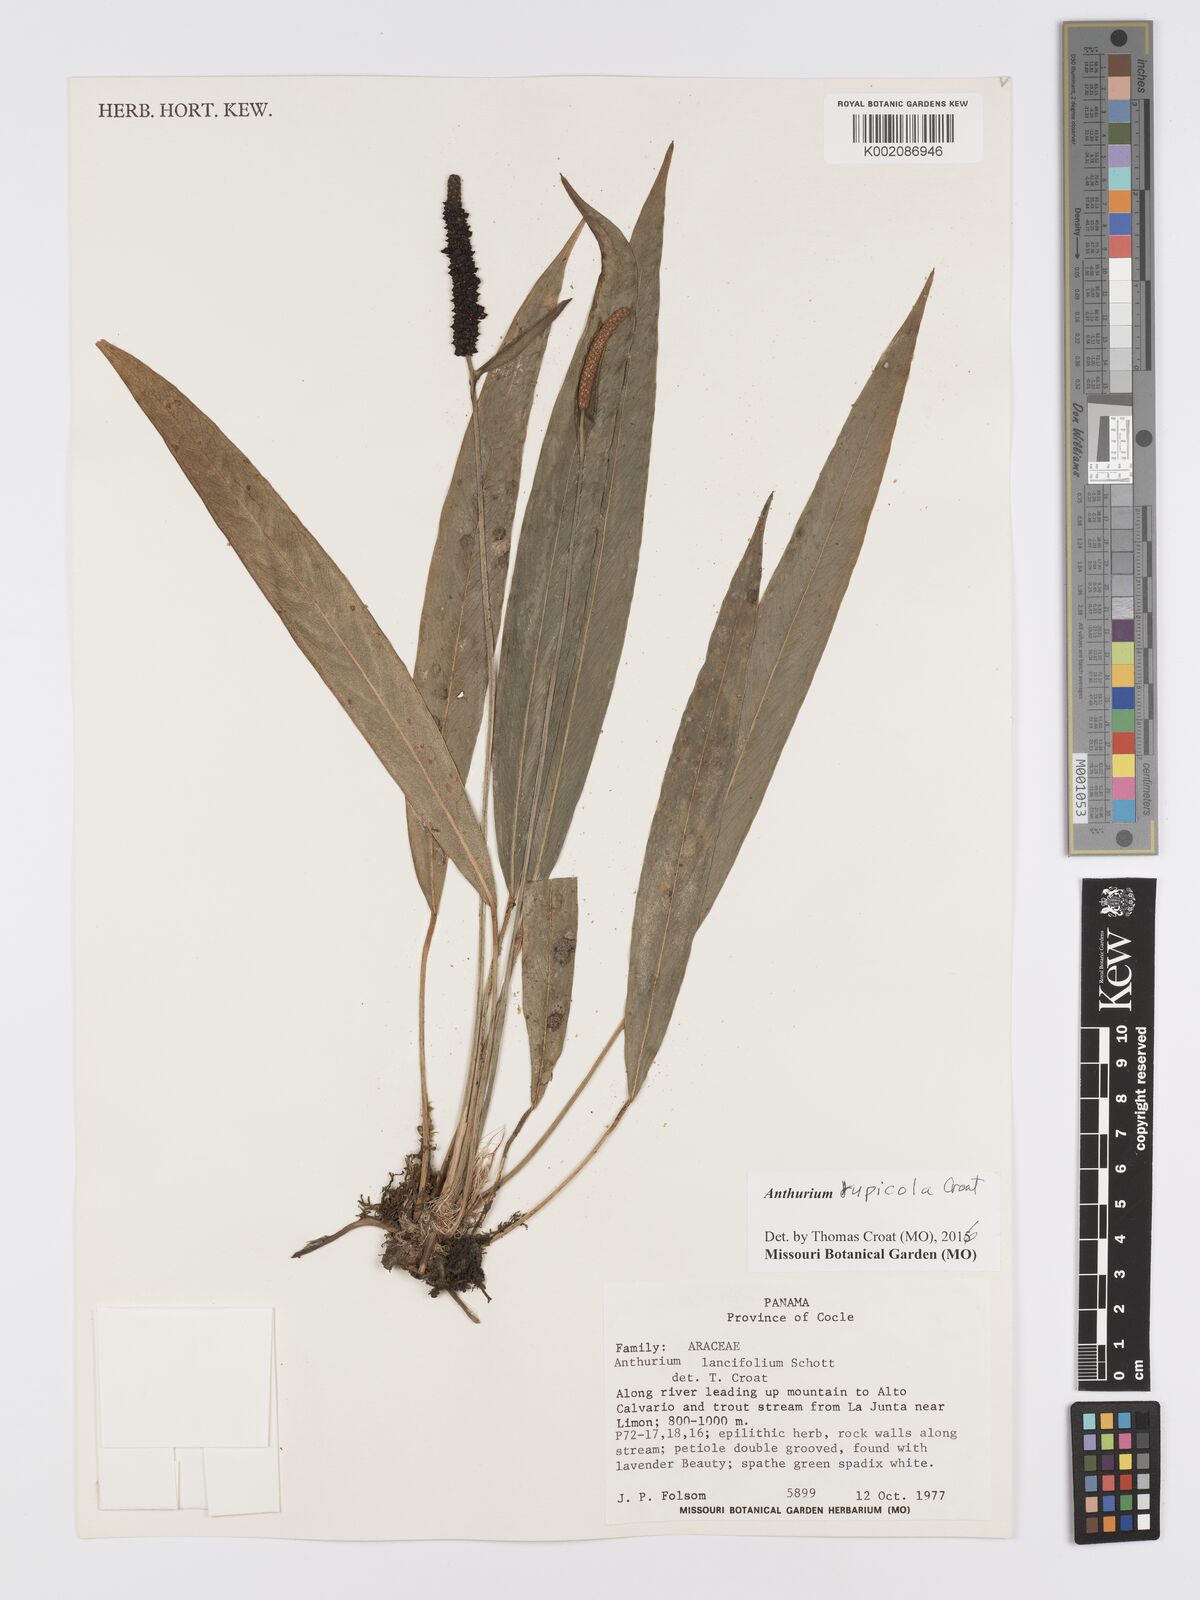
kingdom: Plantae
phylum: Tracheophyta
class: Liliopsida
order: Alismatales
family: Araceae
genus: Anthurium
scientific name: Anthurium rupicola
